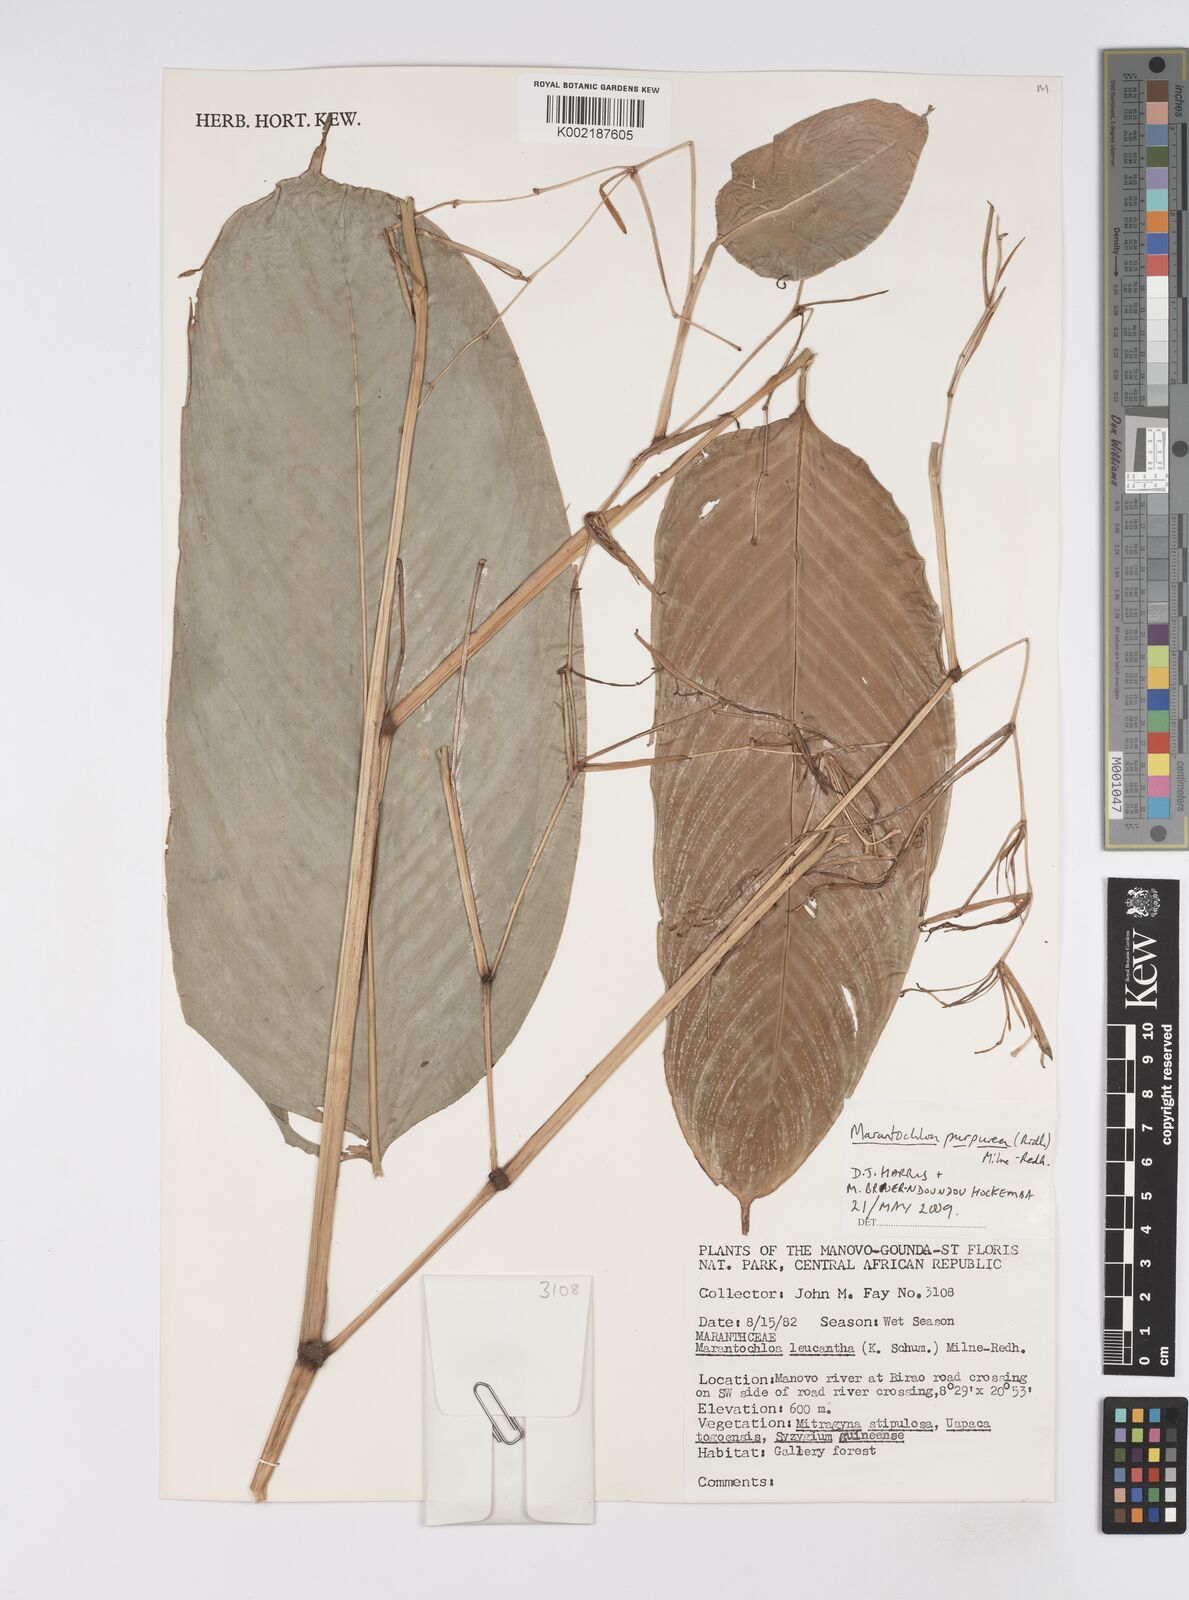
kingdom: Plantae
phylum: Tracheophyta
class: Liliopsida
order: Zingiberales
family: Marantaceae
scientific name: Marantaceae
